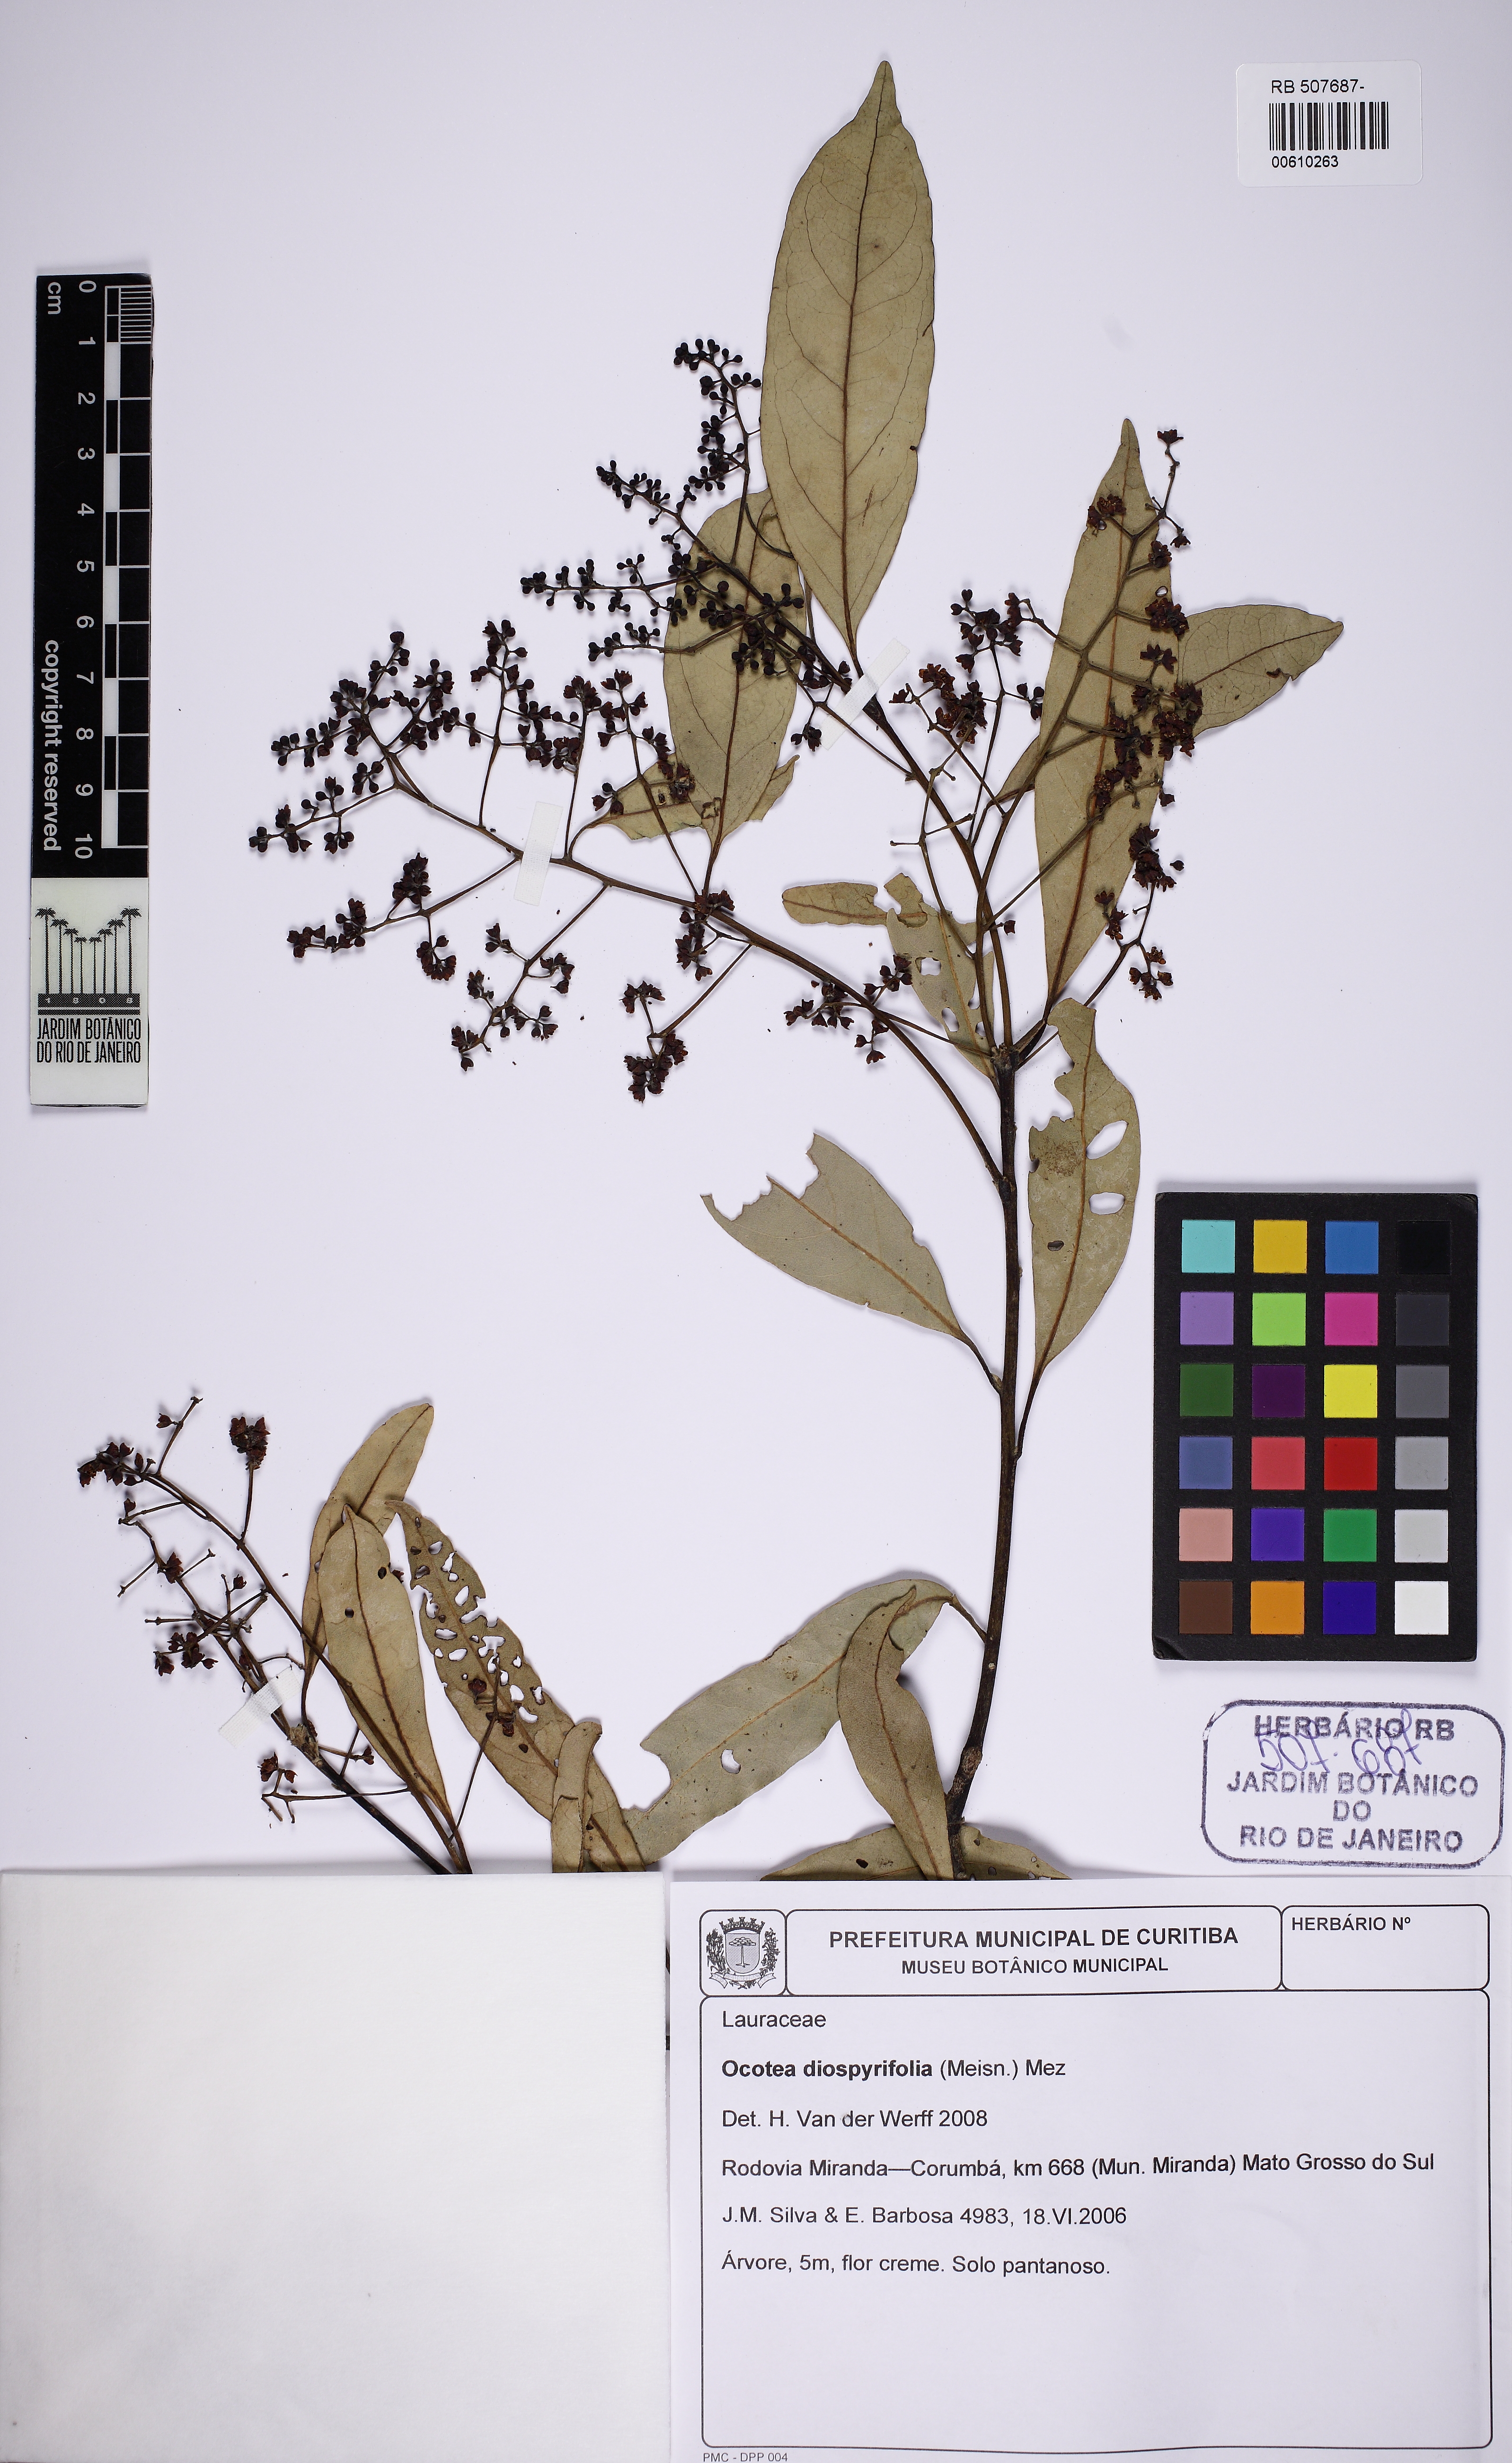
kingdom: Plantae
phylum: Tracheophyta
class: Magnoliopsida
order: Laurales
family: Lauraceae
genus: Ocotea
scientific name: Ocotea diospyrifolia
